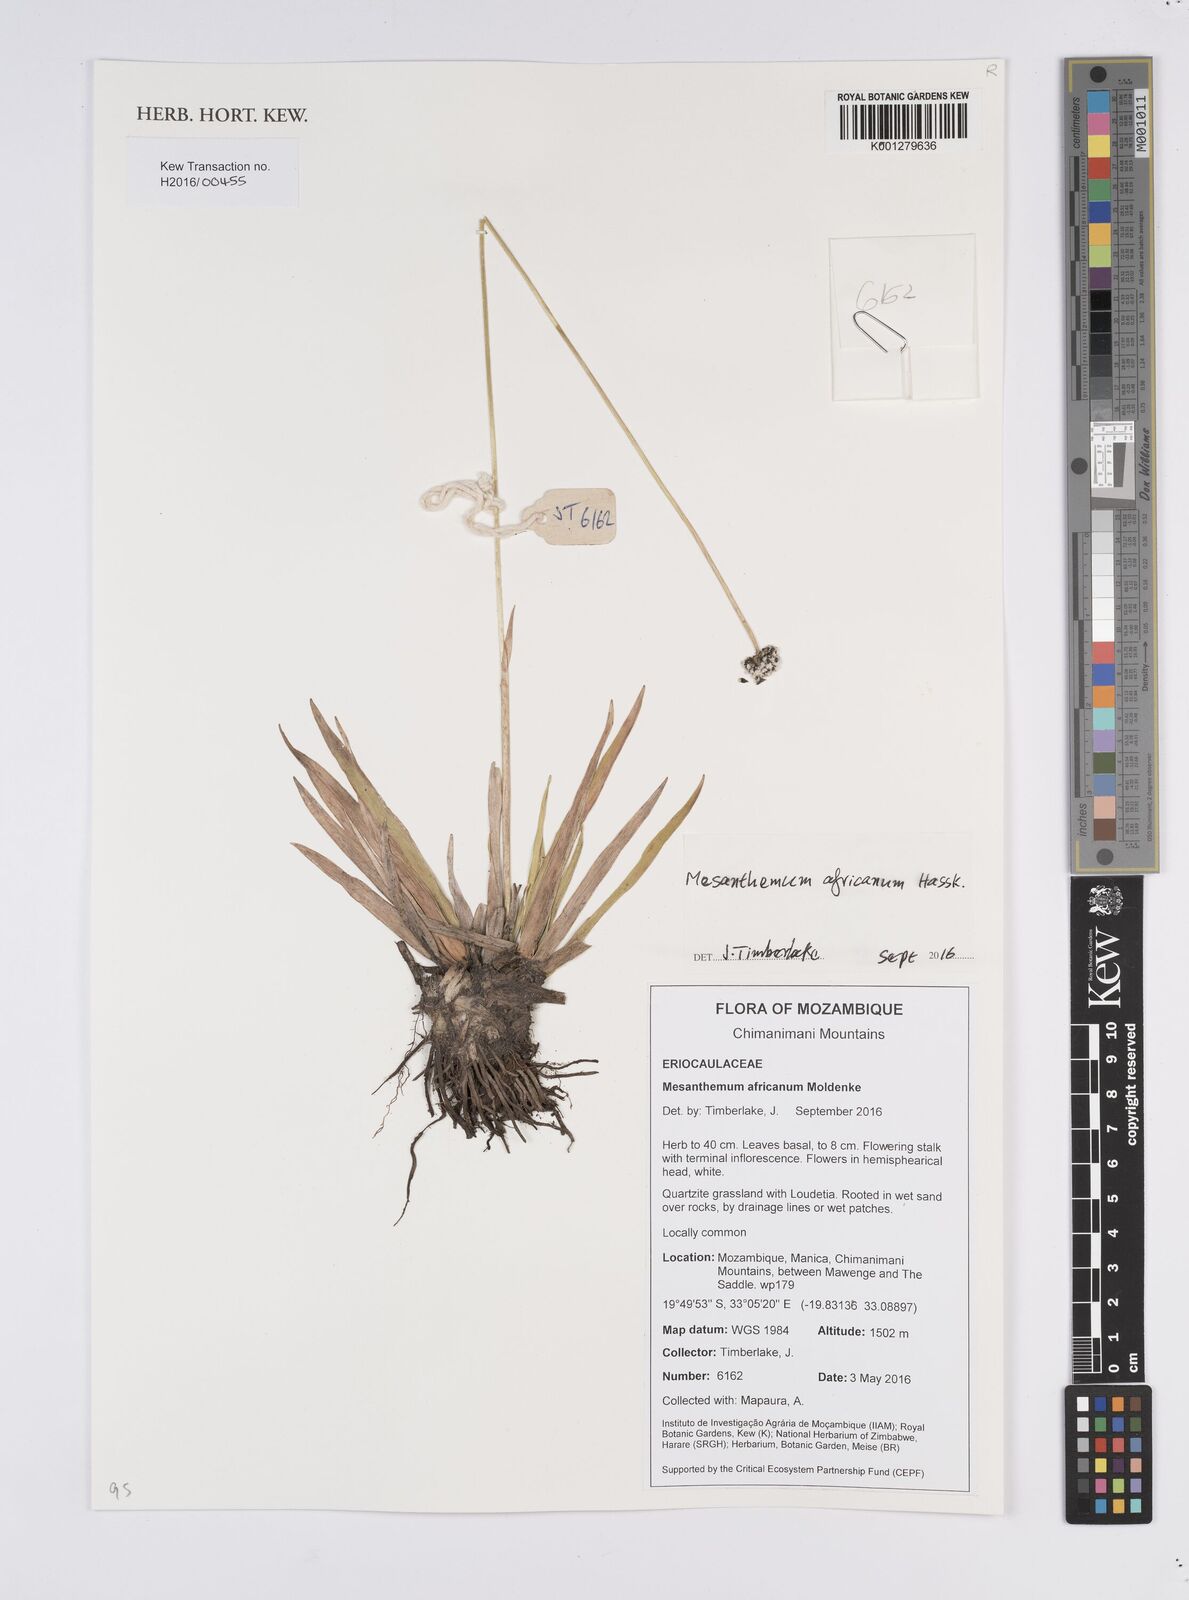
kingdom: Plantae
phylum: Tracheophyta
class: Liliopsida
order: Poales
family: Eriocaulaceae
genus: Mesanthemum
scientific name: Mesanthemum africanum
